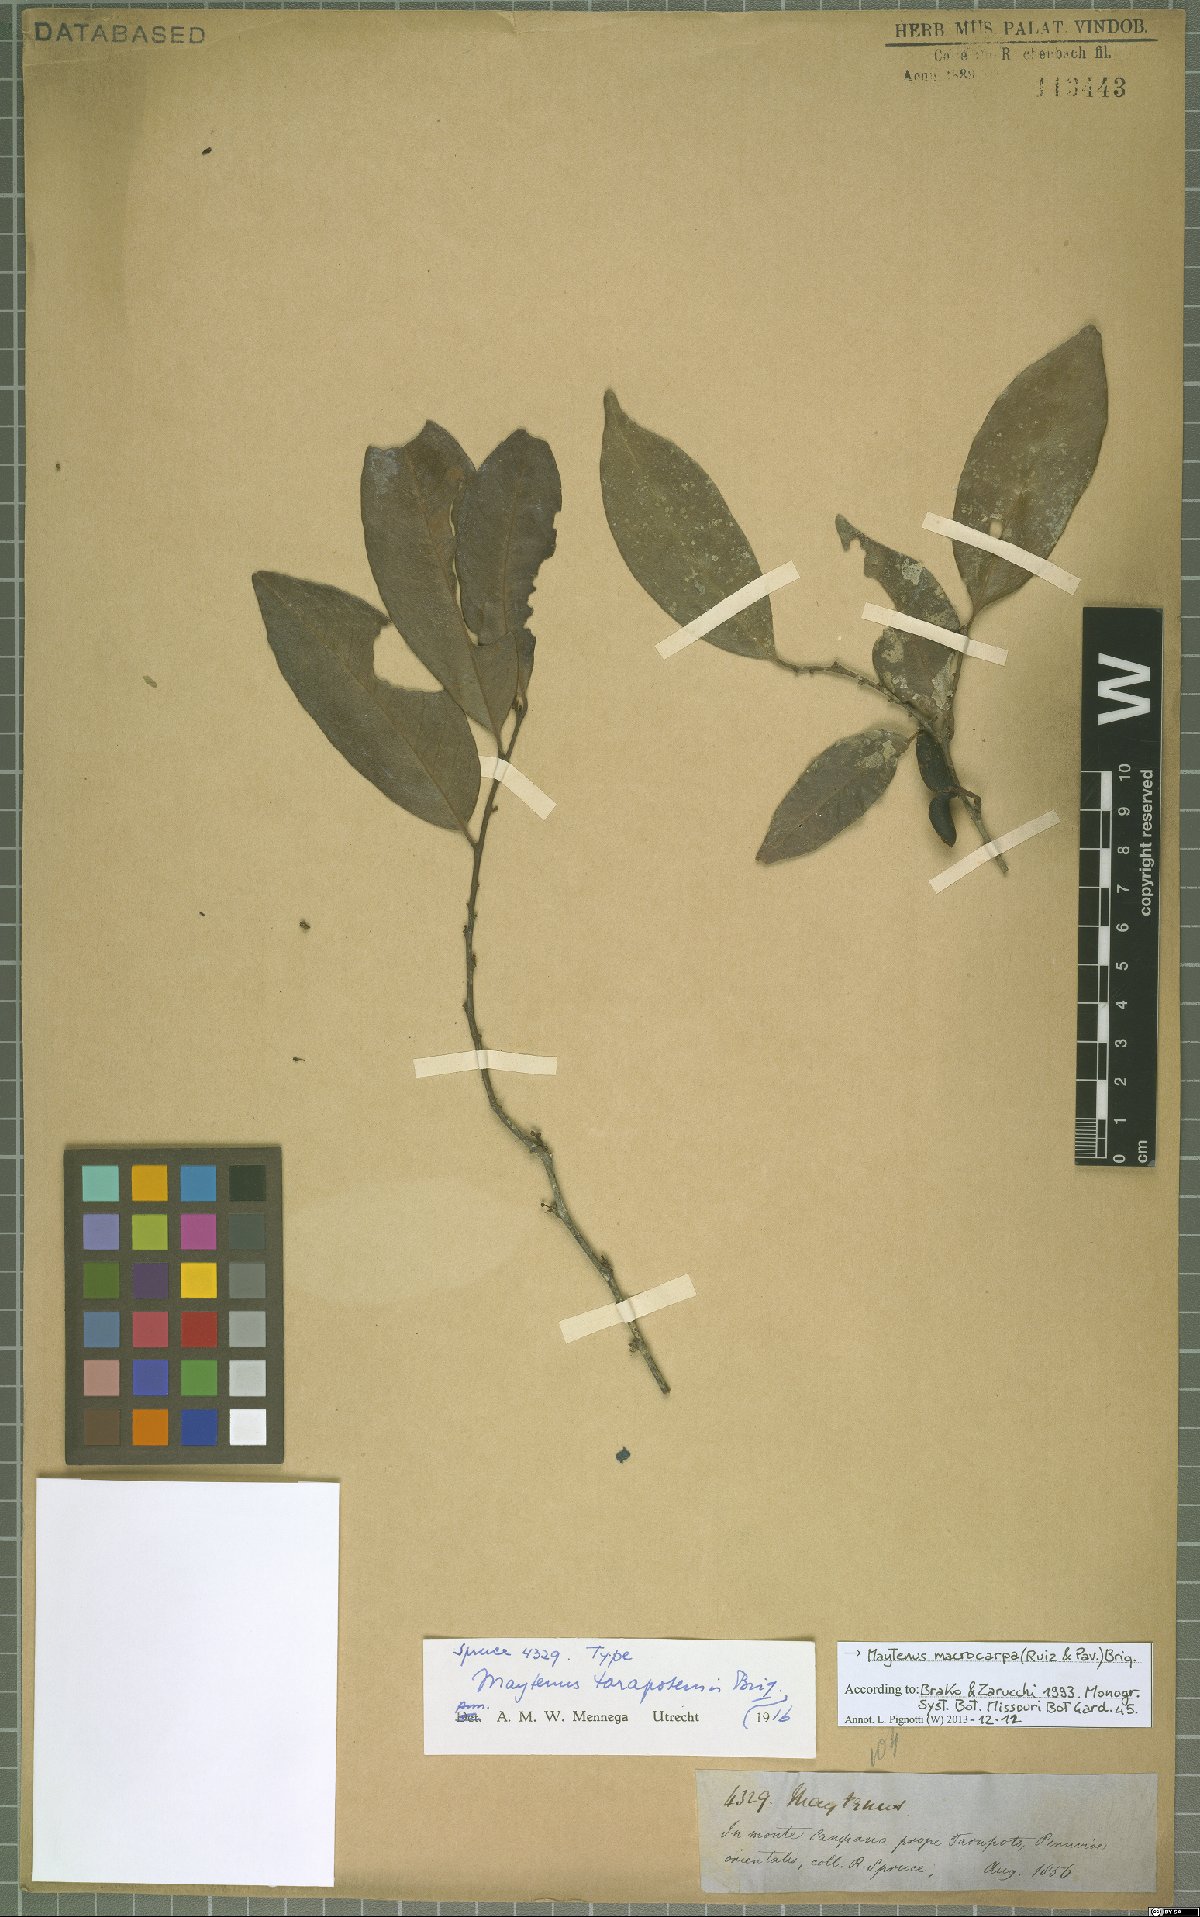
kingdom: Plantae
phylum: Tracheophyta
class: Magnoliopsida
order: Celastrales
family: Celastraceae
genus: Monteverdia
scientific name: Monteverdia macrocarpa
